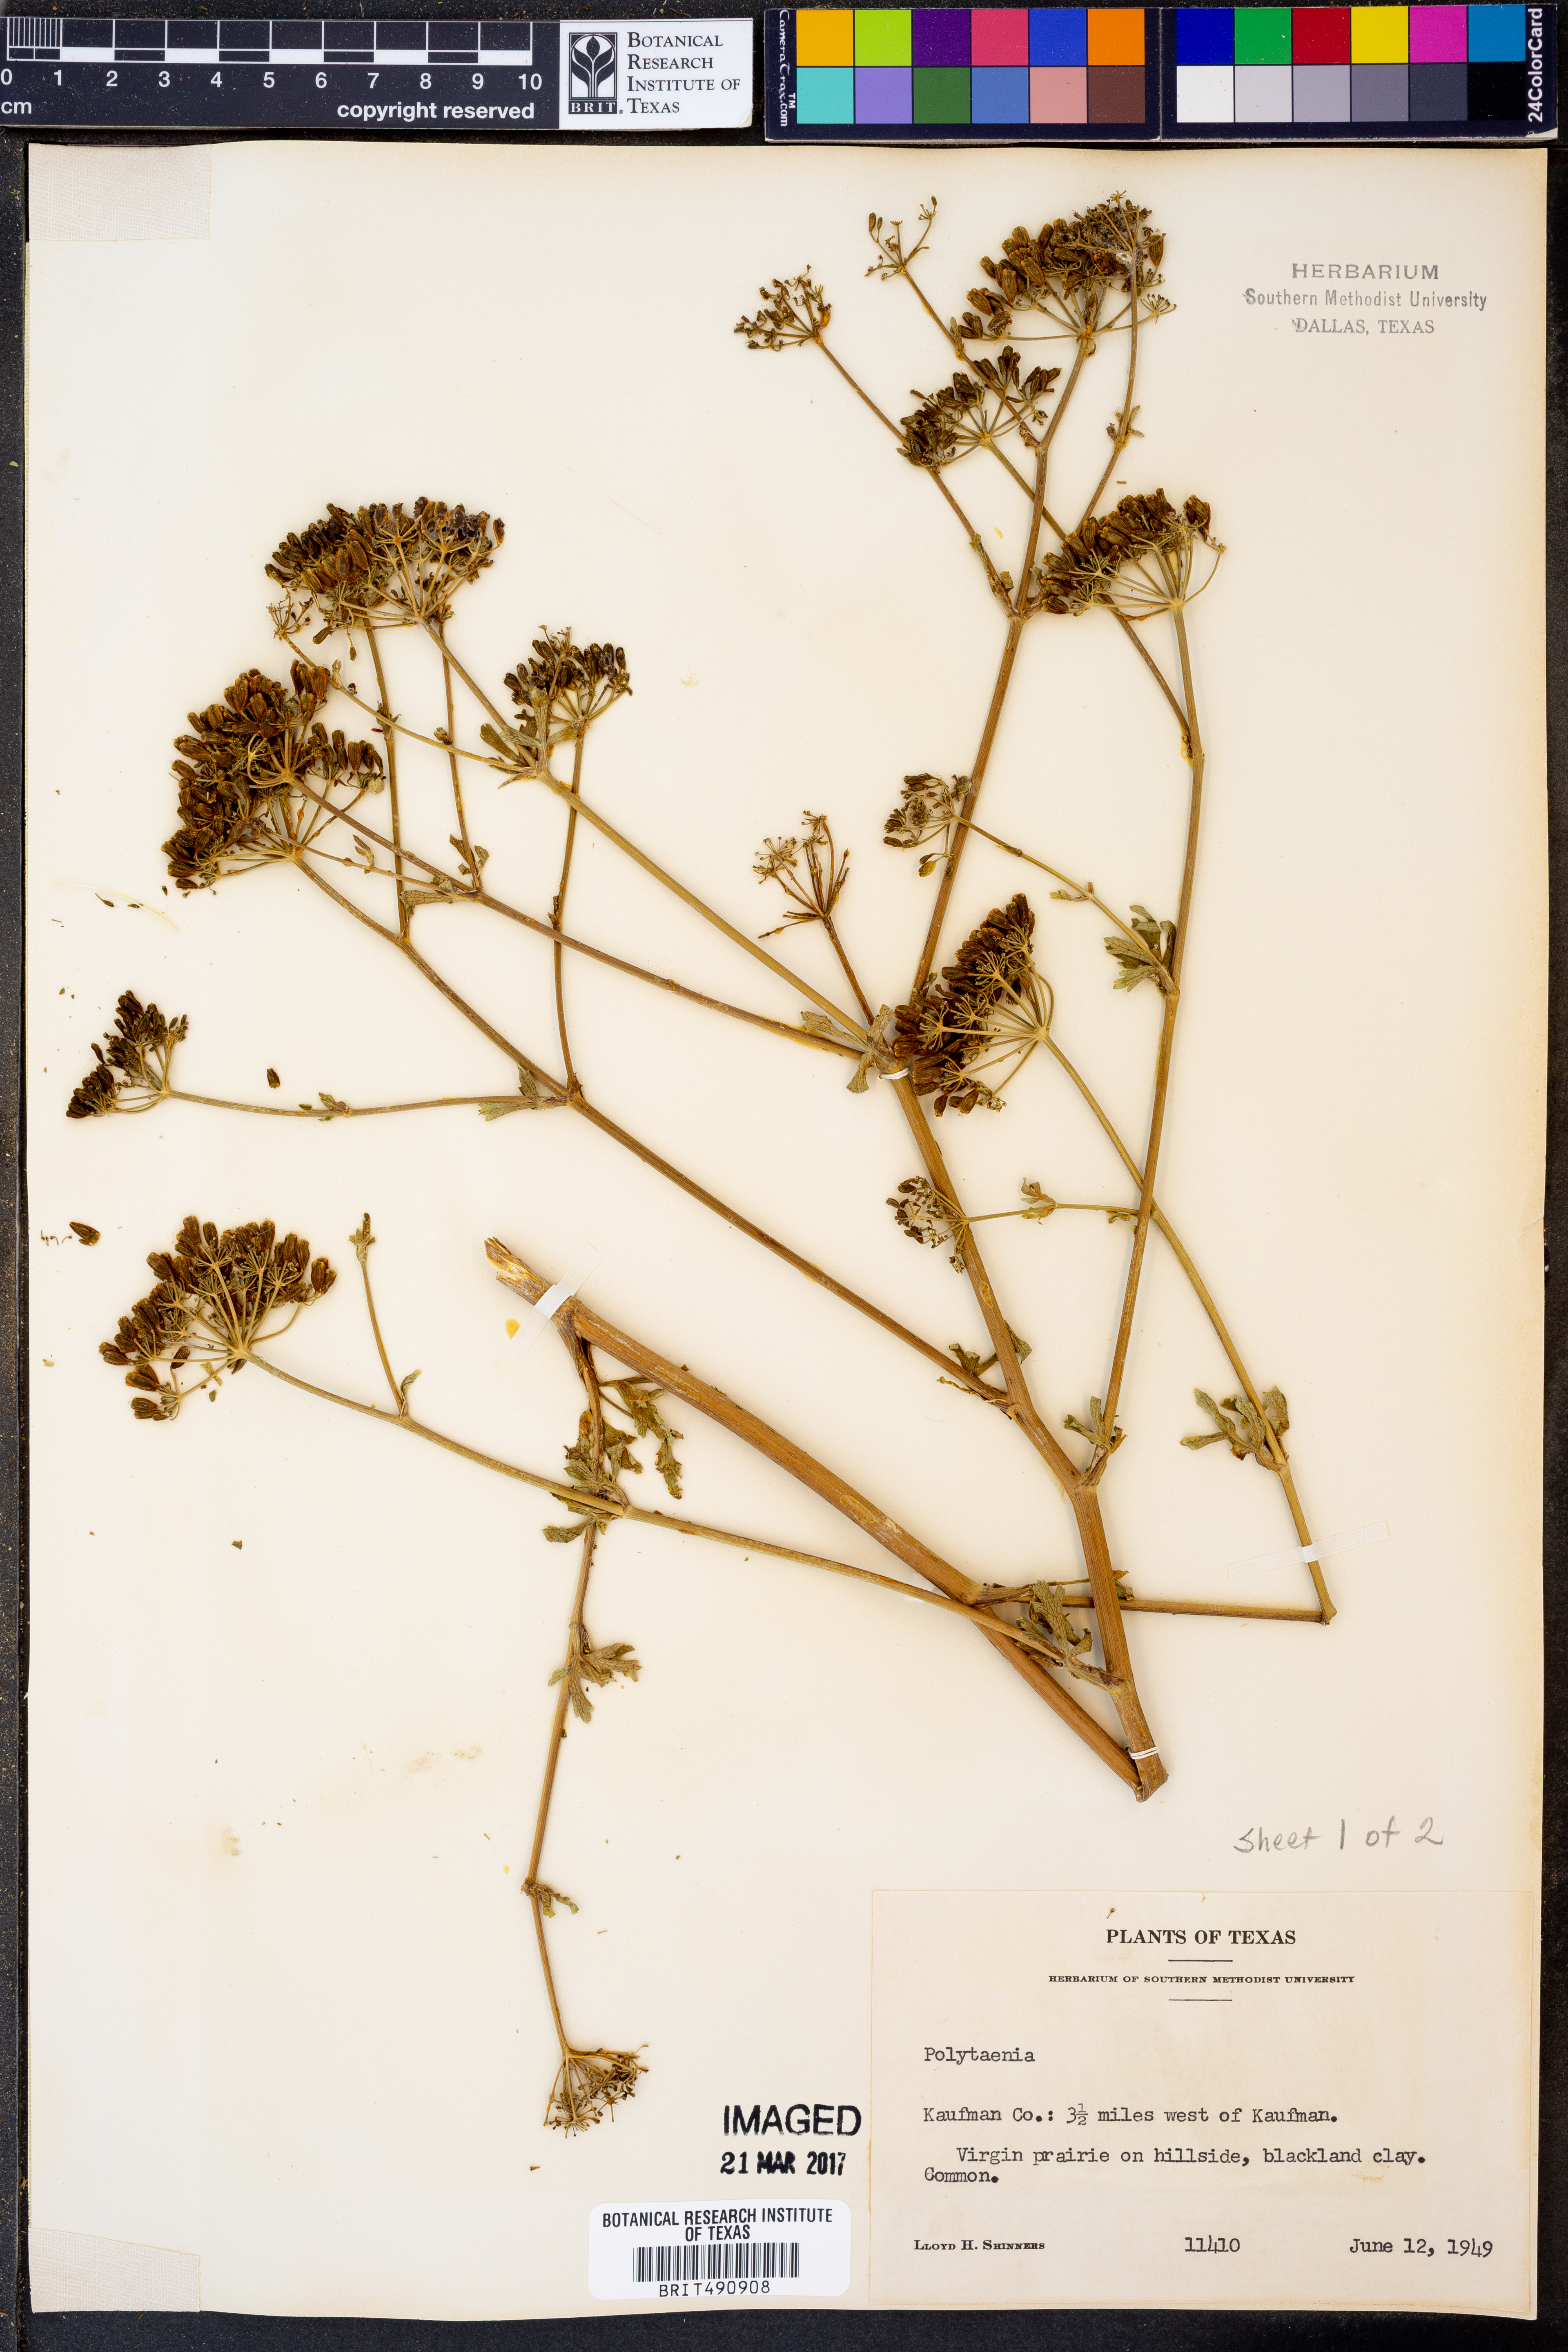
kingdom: Plantae
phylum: Tracheophyta
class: Magnoliopsida
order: Apiales
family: Apiaceae
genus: Polytaenia
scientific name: Polytaenia
